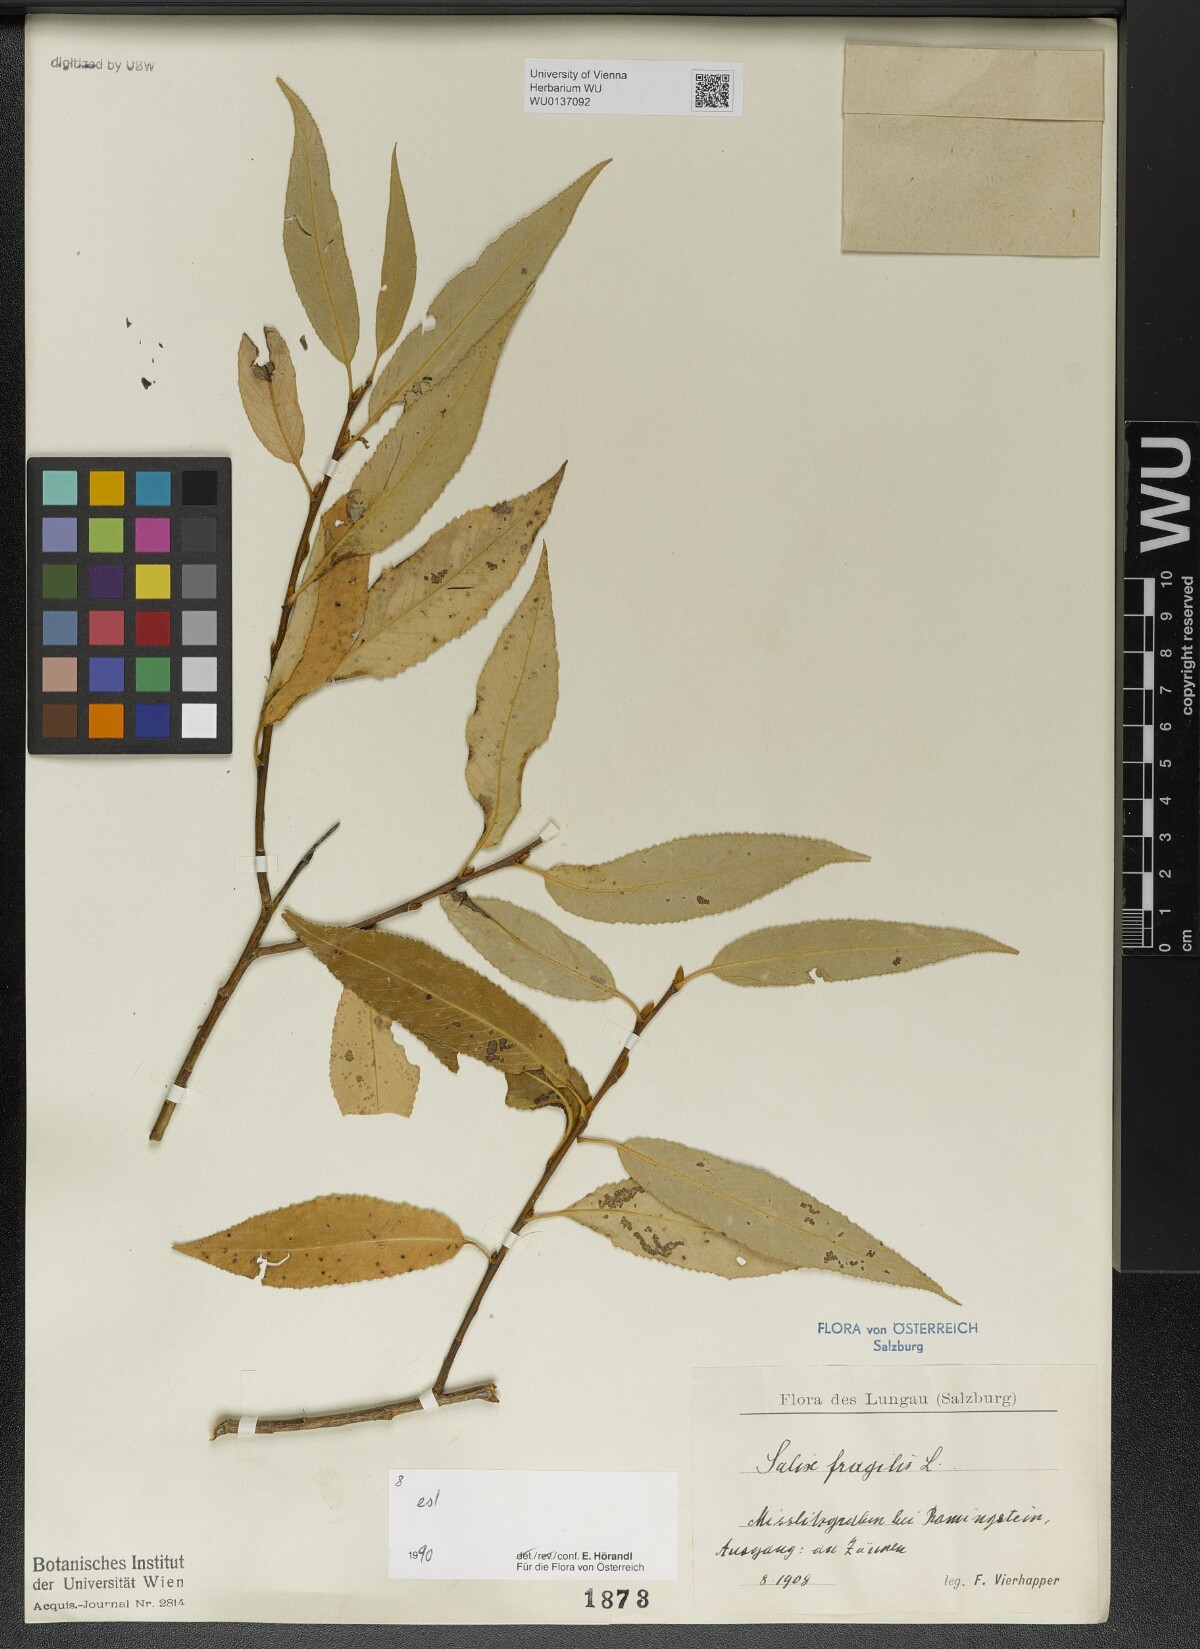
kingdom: Plantae
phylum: Tracheophyta
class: Magnoliopsida
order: Malpighiales
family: Salicaceae
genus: Salix
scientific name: Salix fragilis
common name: Crack willow
